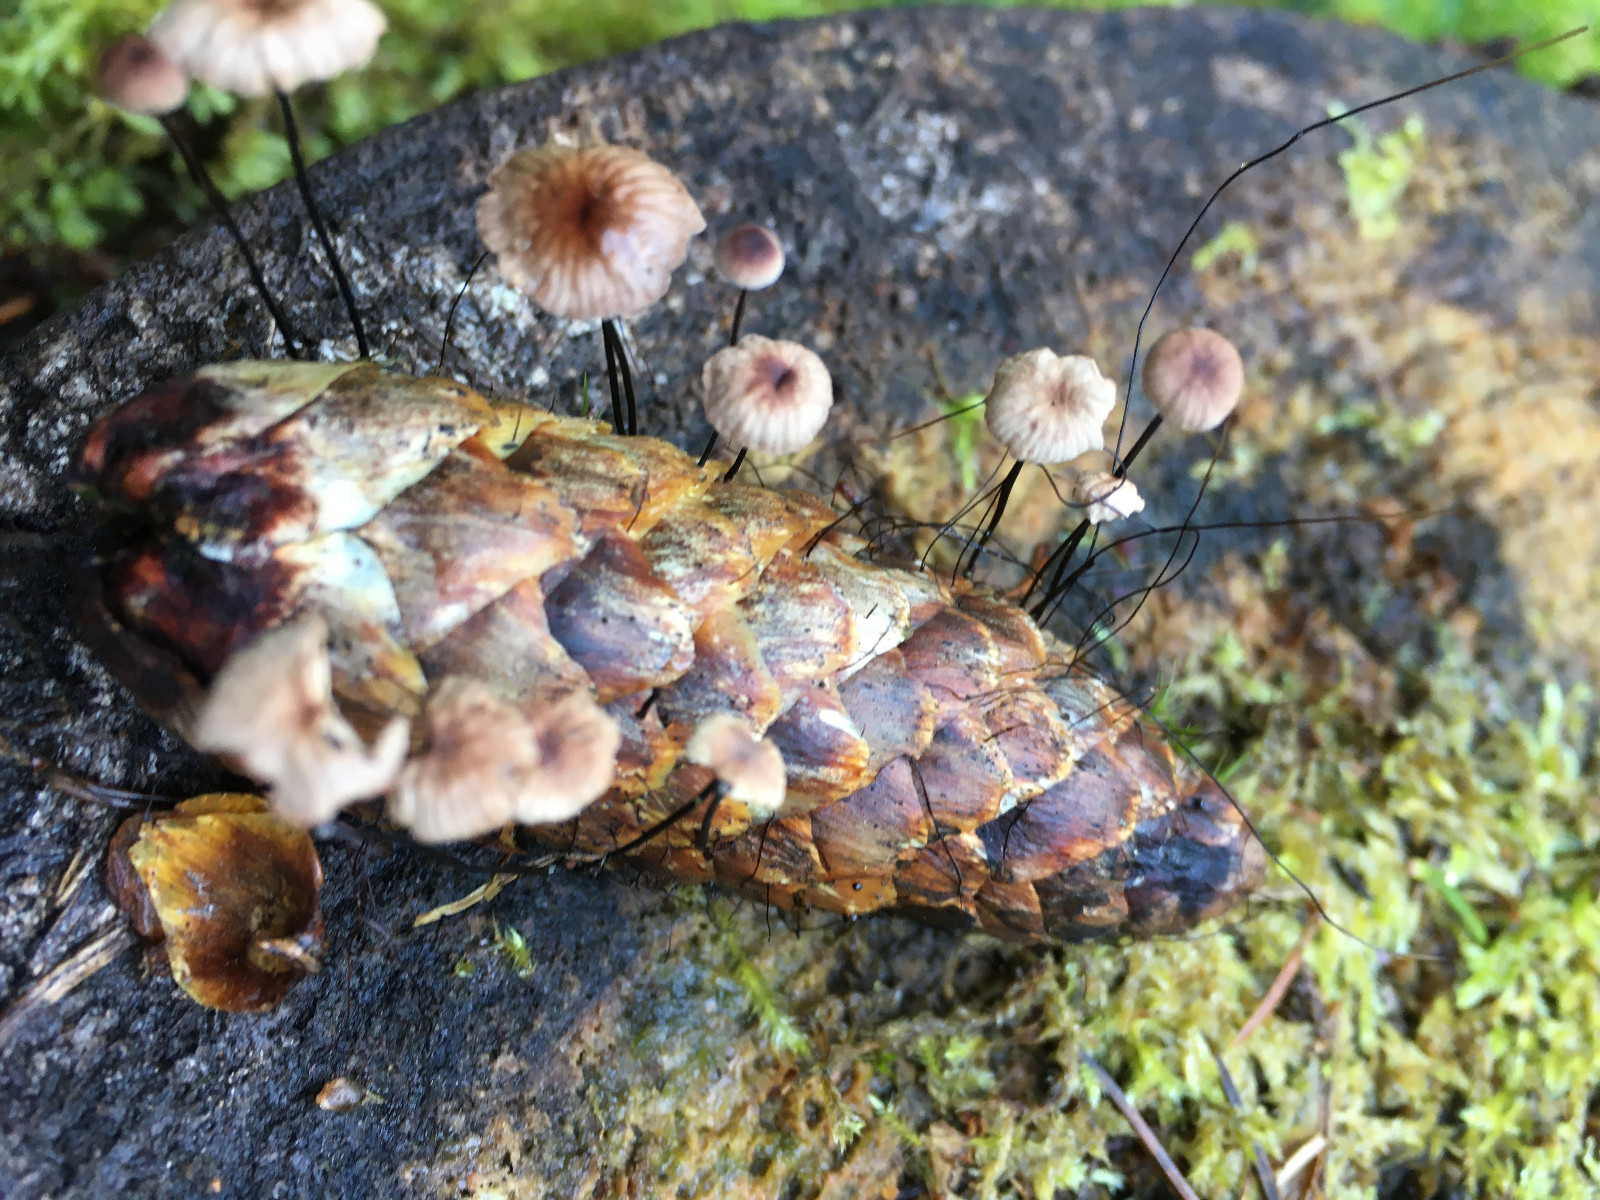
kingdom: Fungi
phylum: Basidiomycota
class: Agaricomycetes
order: Agaricales
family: Omphalotaceae
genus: Gymnopus
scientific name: Gymnopus androsaceus
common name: trådstokket fladhat
